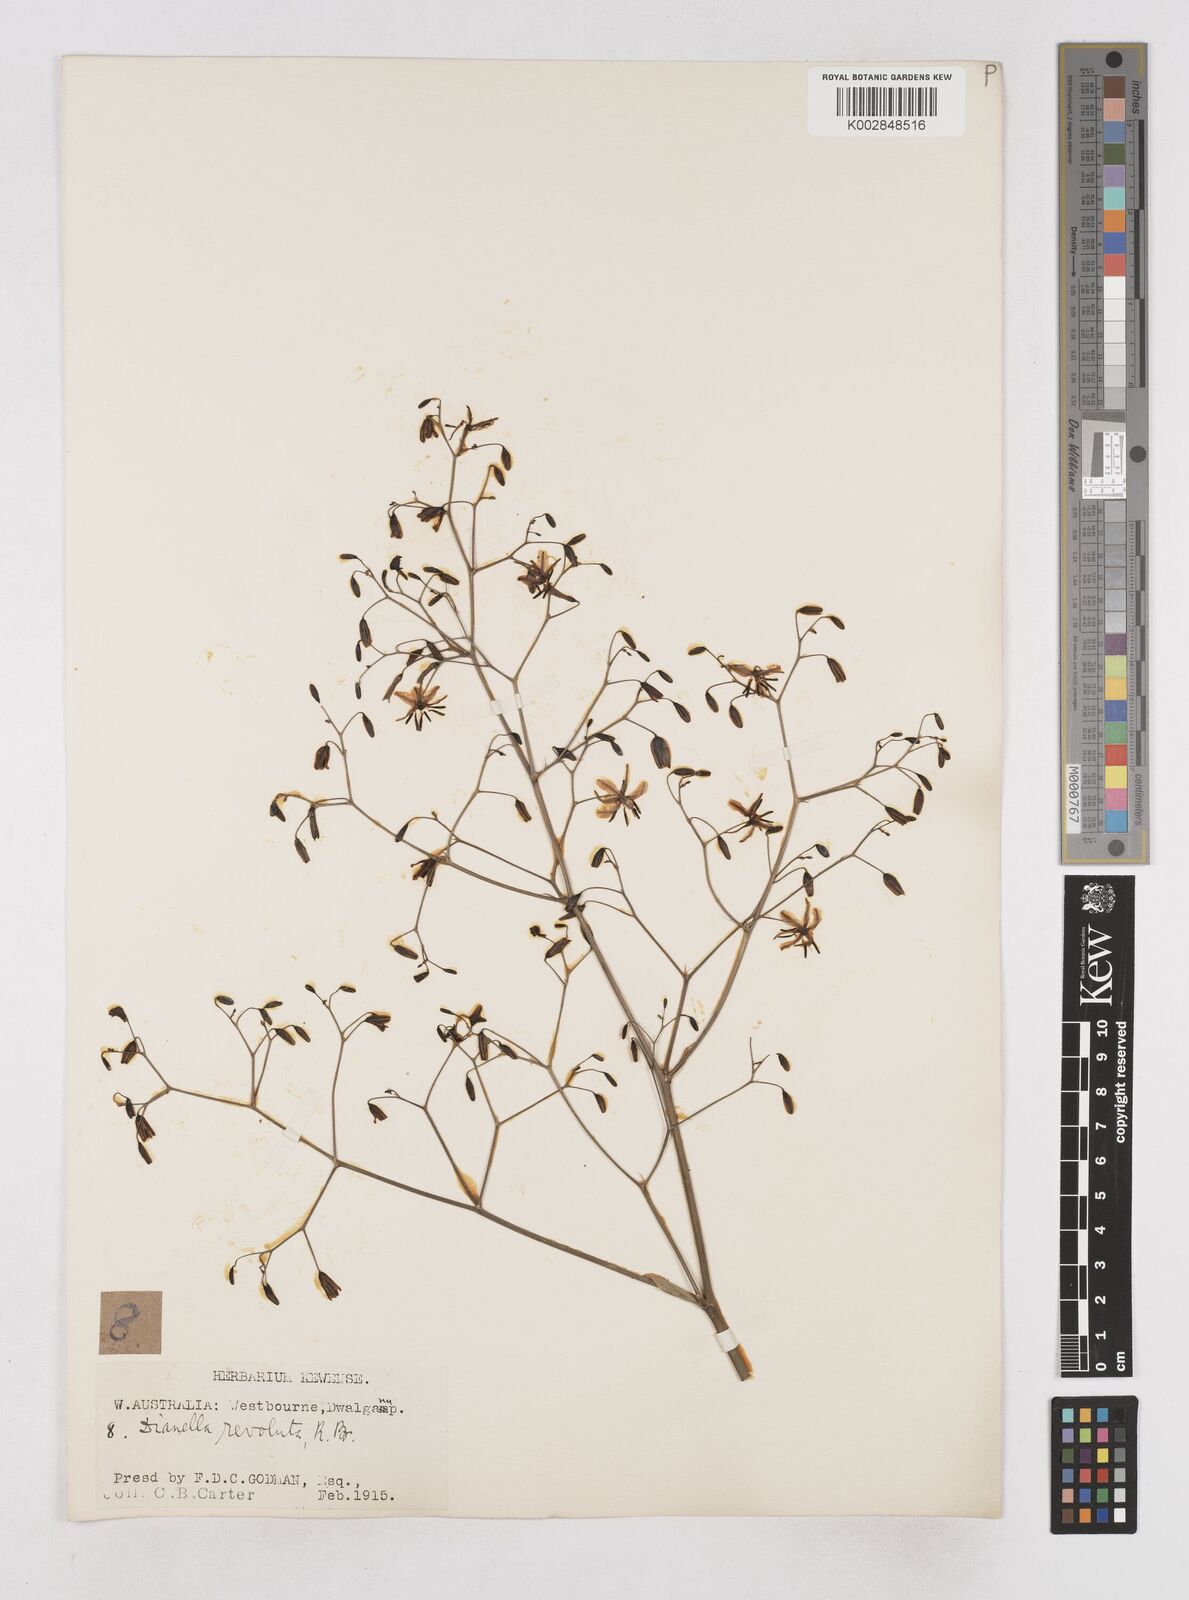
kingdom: Plantae
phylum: Tracheophyta
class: Liliopsida
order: Asparagales
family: Asphodelaceae
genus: Dianella
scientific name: Dianella revoluta
